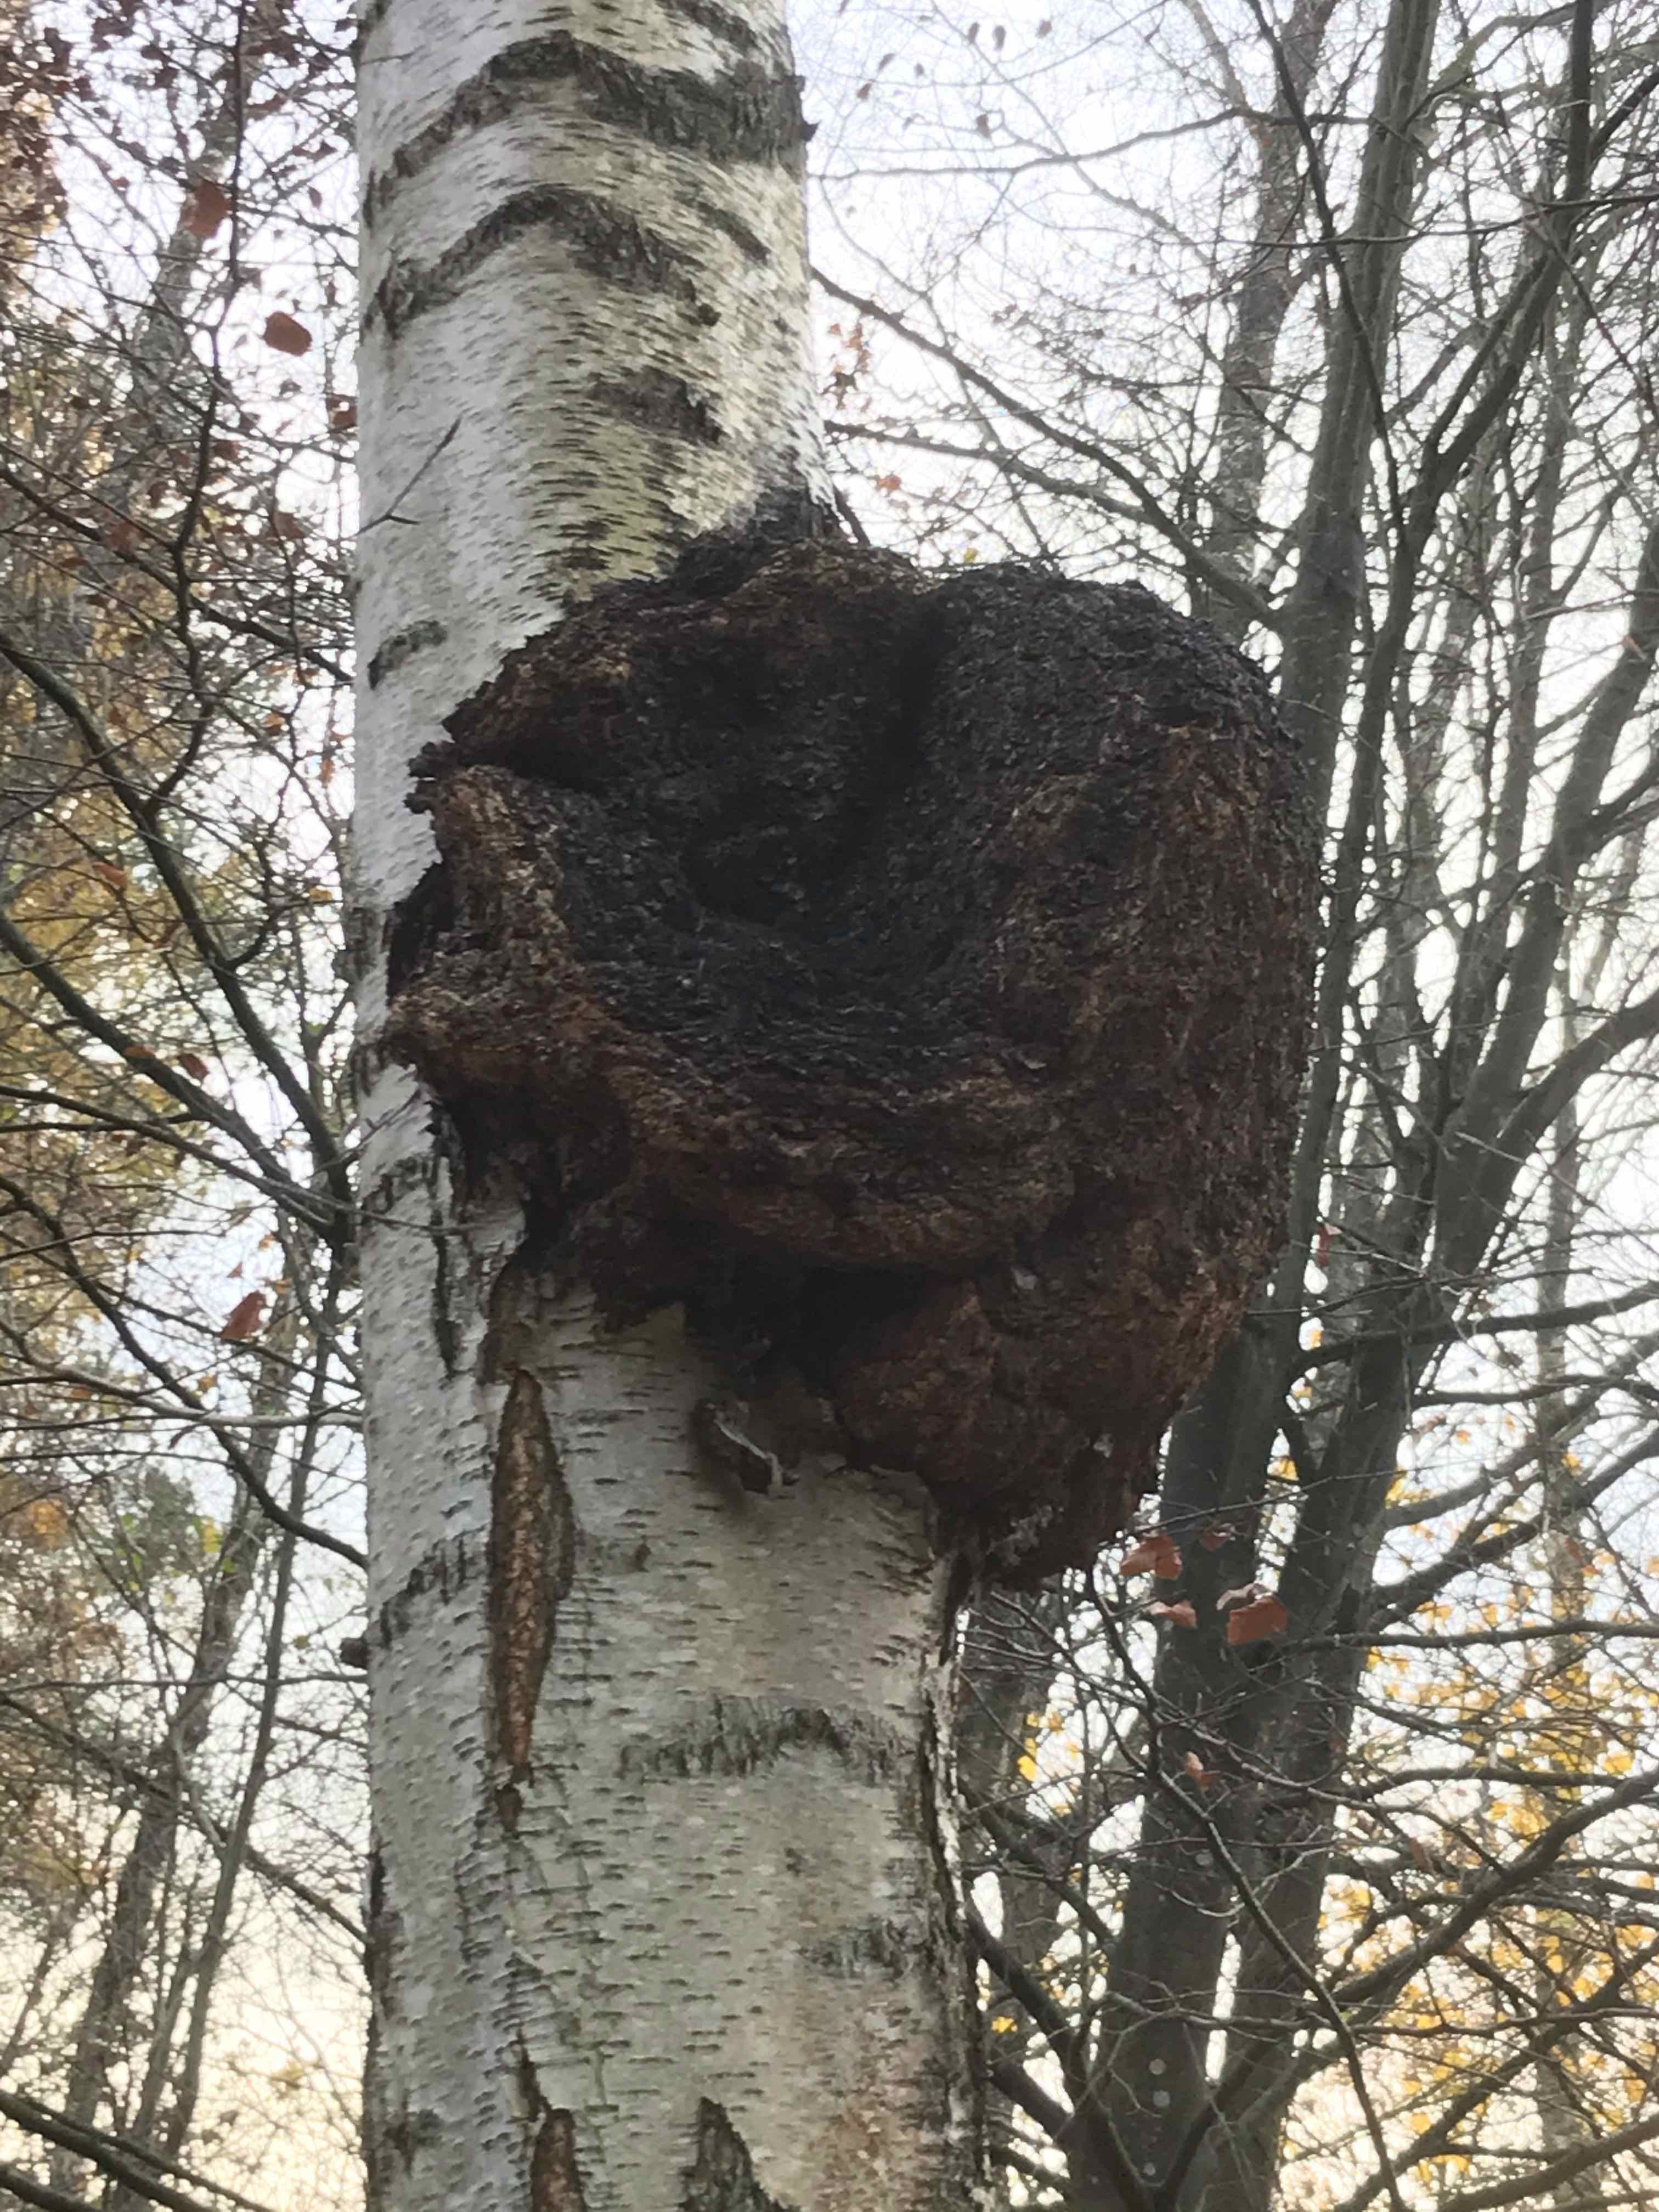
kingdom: Fungi
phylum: Basidiomycota
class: Agaricomycetes
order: Hymenochaetales
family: Hymenochaetaceae
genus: Inonotus
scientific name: Inonotus obliquus
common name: birke-spejlporesvamp
